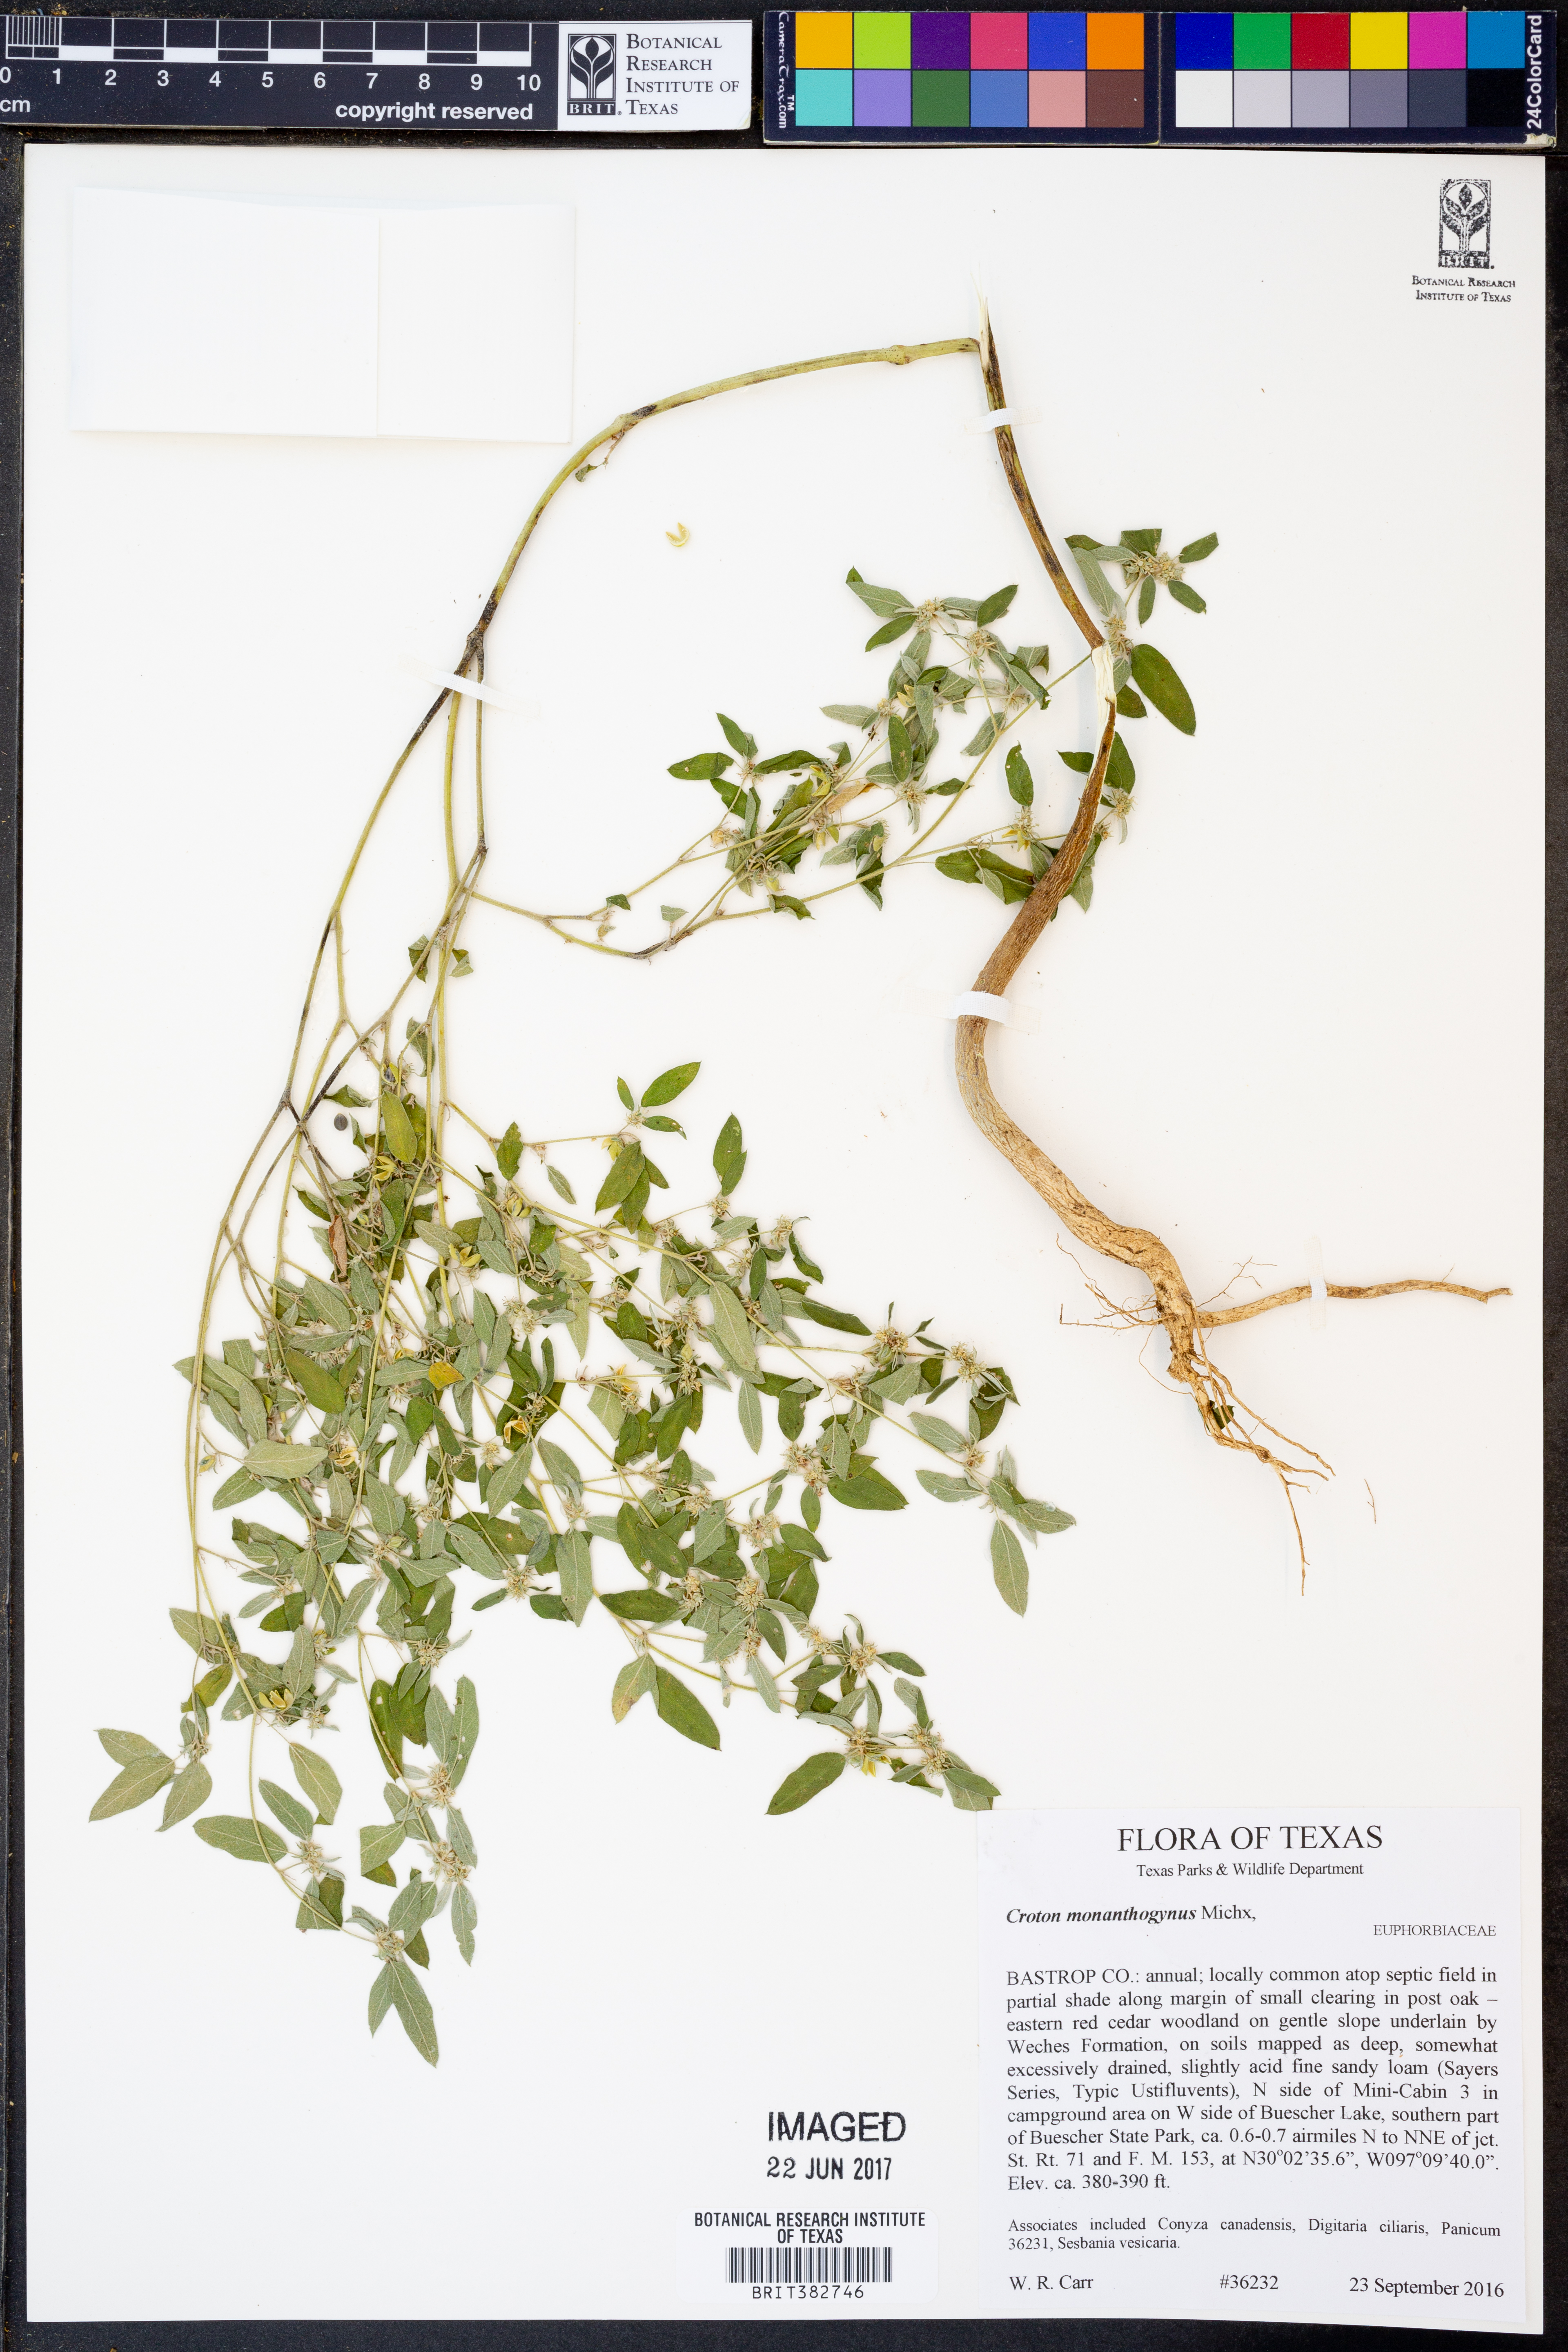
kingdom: Plantae
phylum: Tracheophyta
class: Magnoliopsida
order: Malpighiales
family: Euphorbiaceae
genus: Croton
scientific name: Croton monanthogynus
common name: One-seed croton
